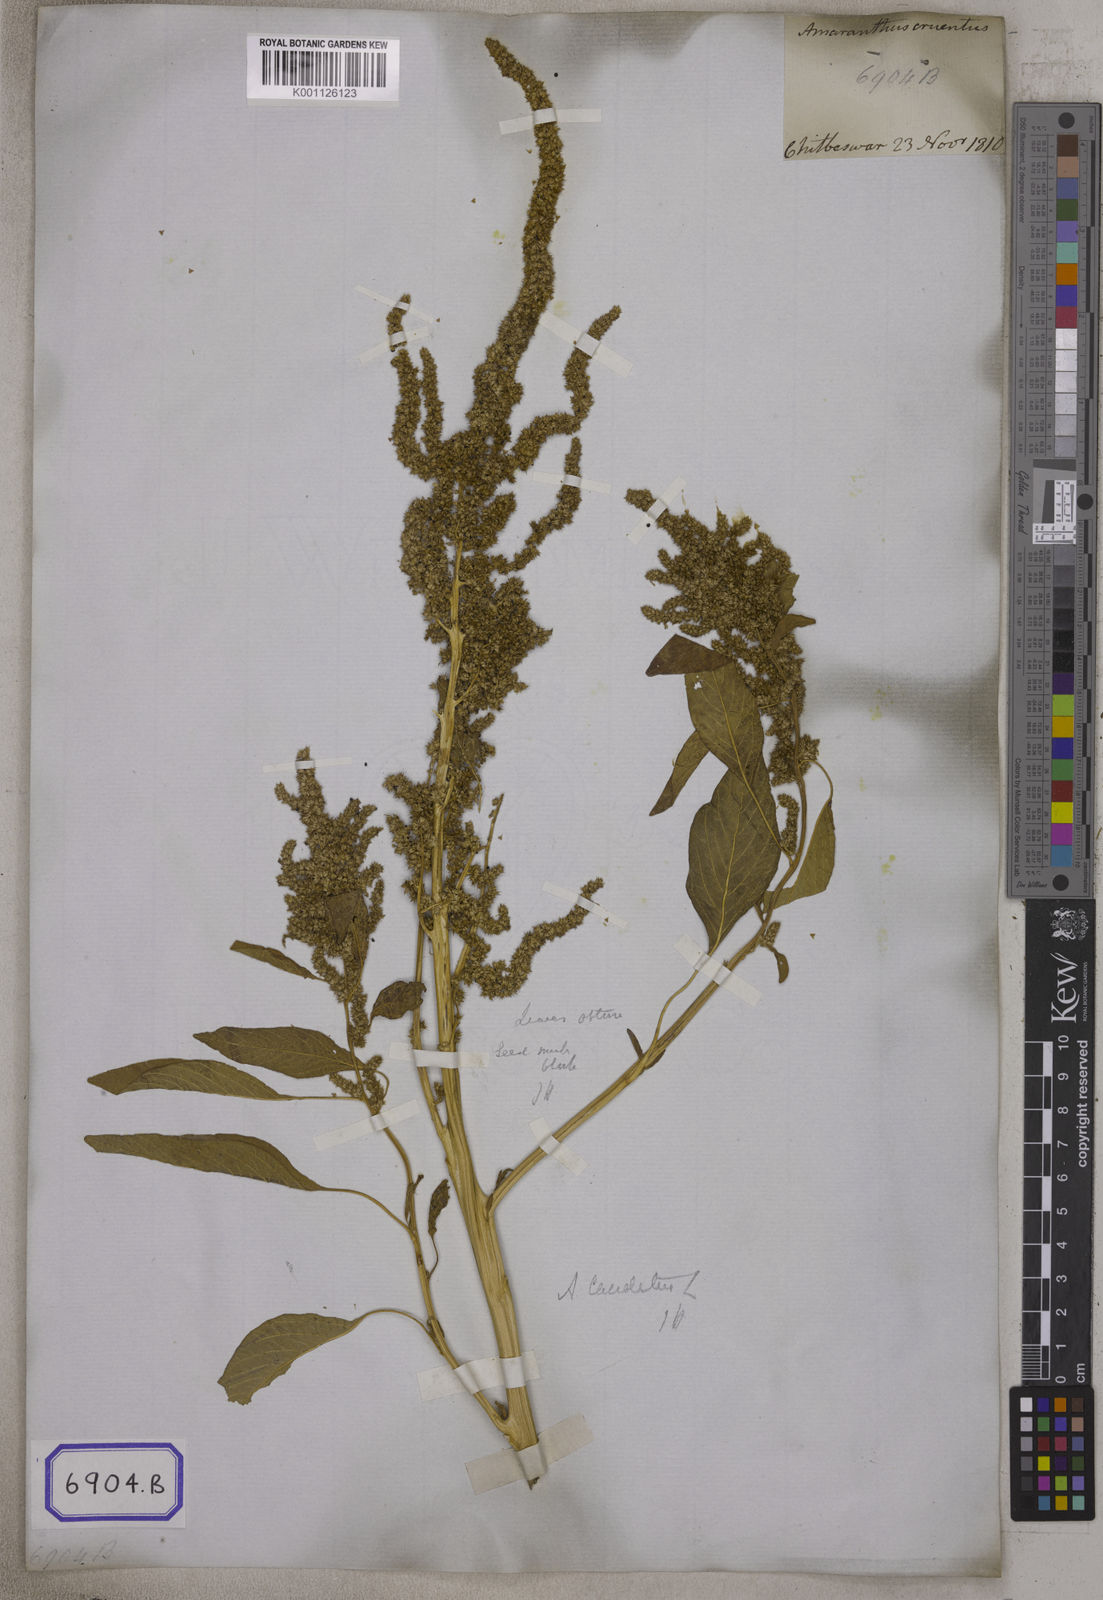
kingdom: Plantae
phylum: Tracheophyta
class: Magnoliopsida
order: Caryophyllales
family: Amaranthaceae
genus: Amaranthus
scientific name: Amaranthus
